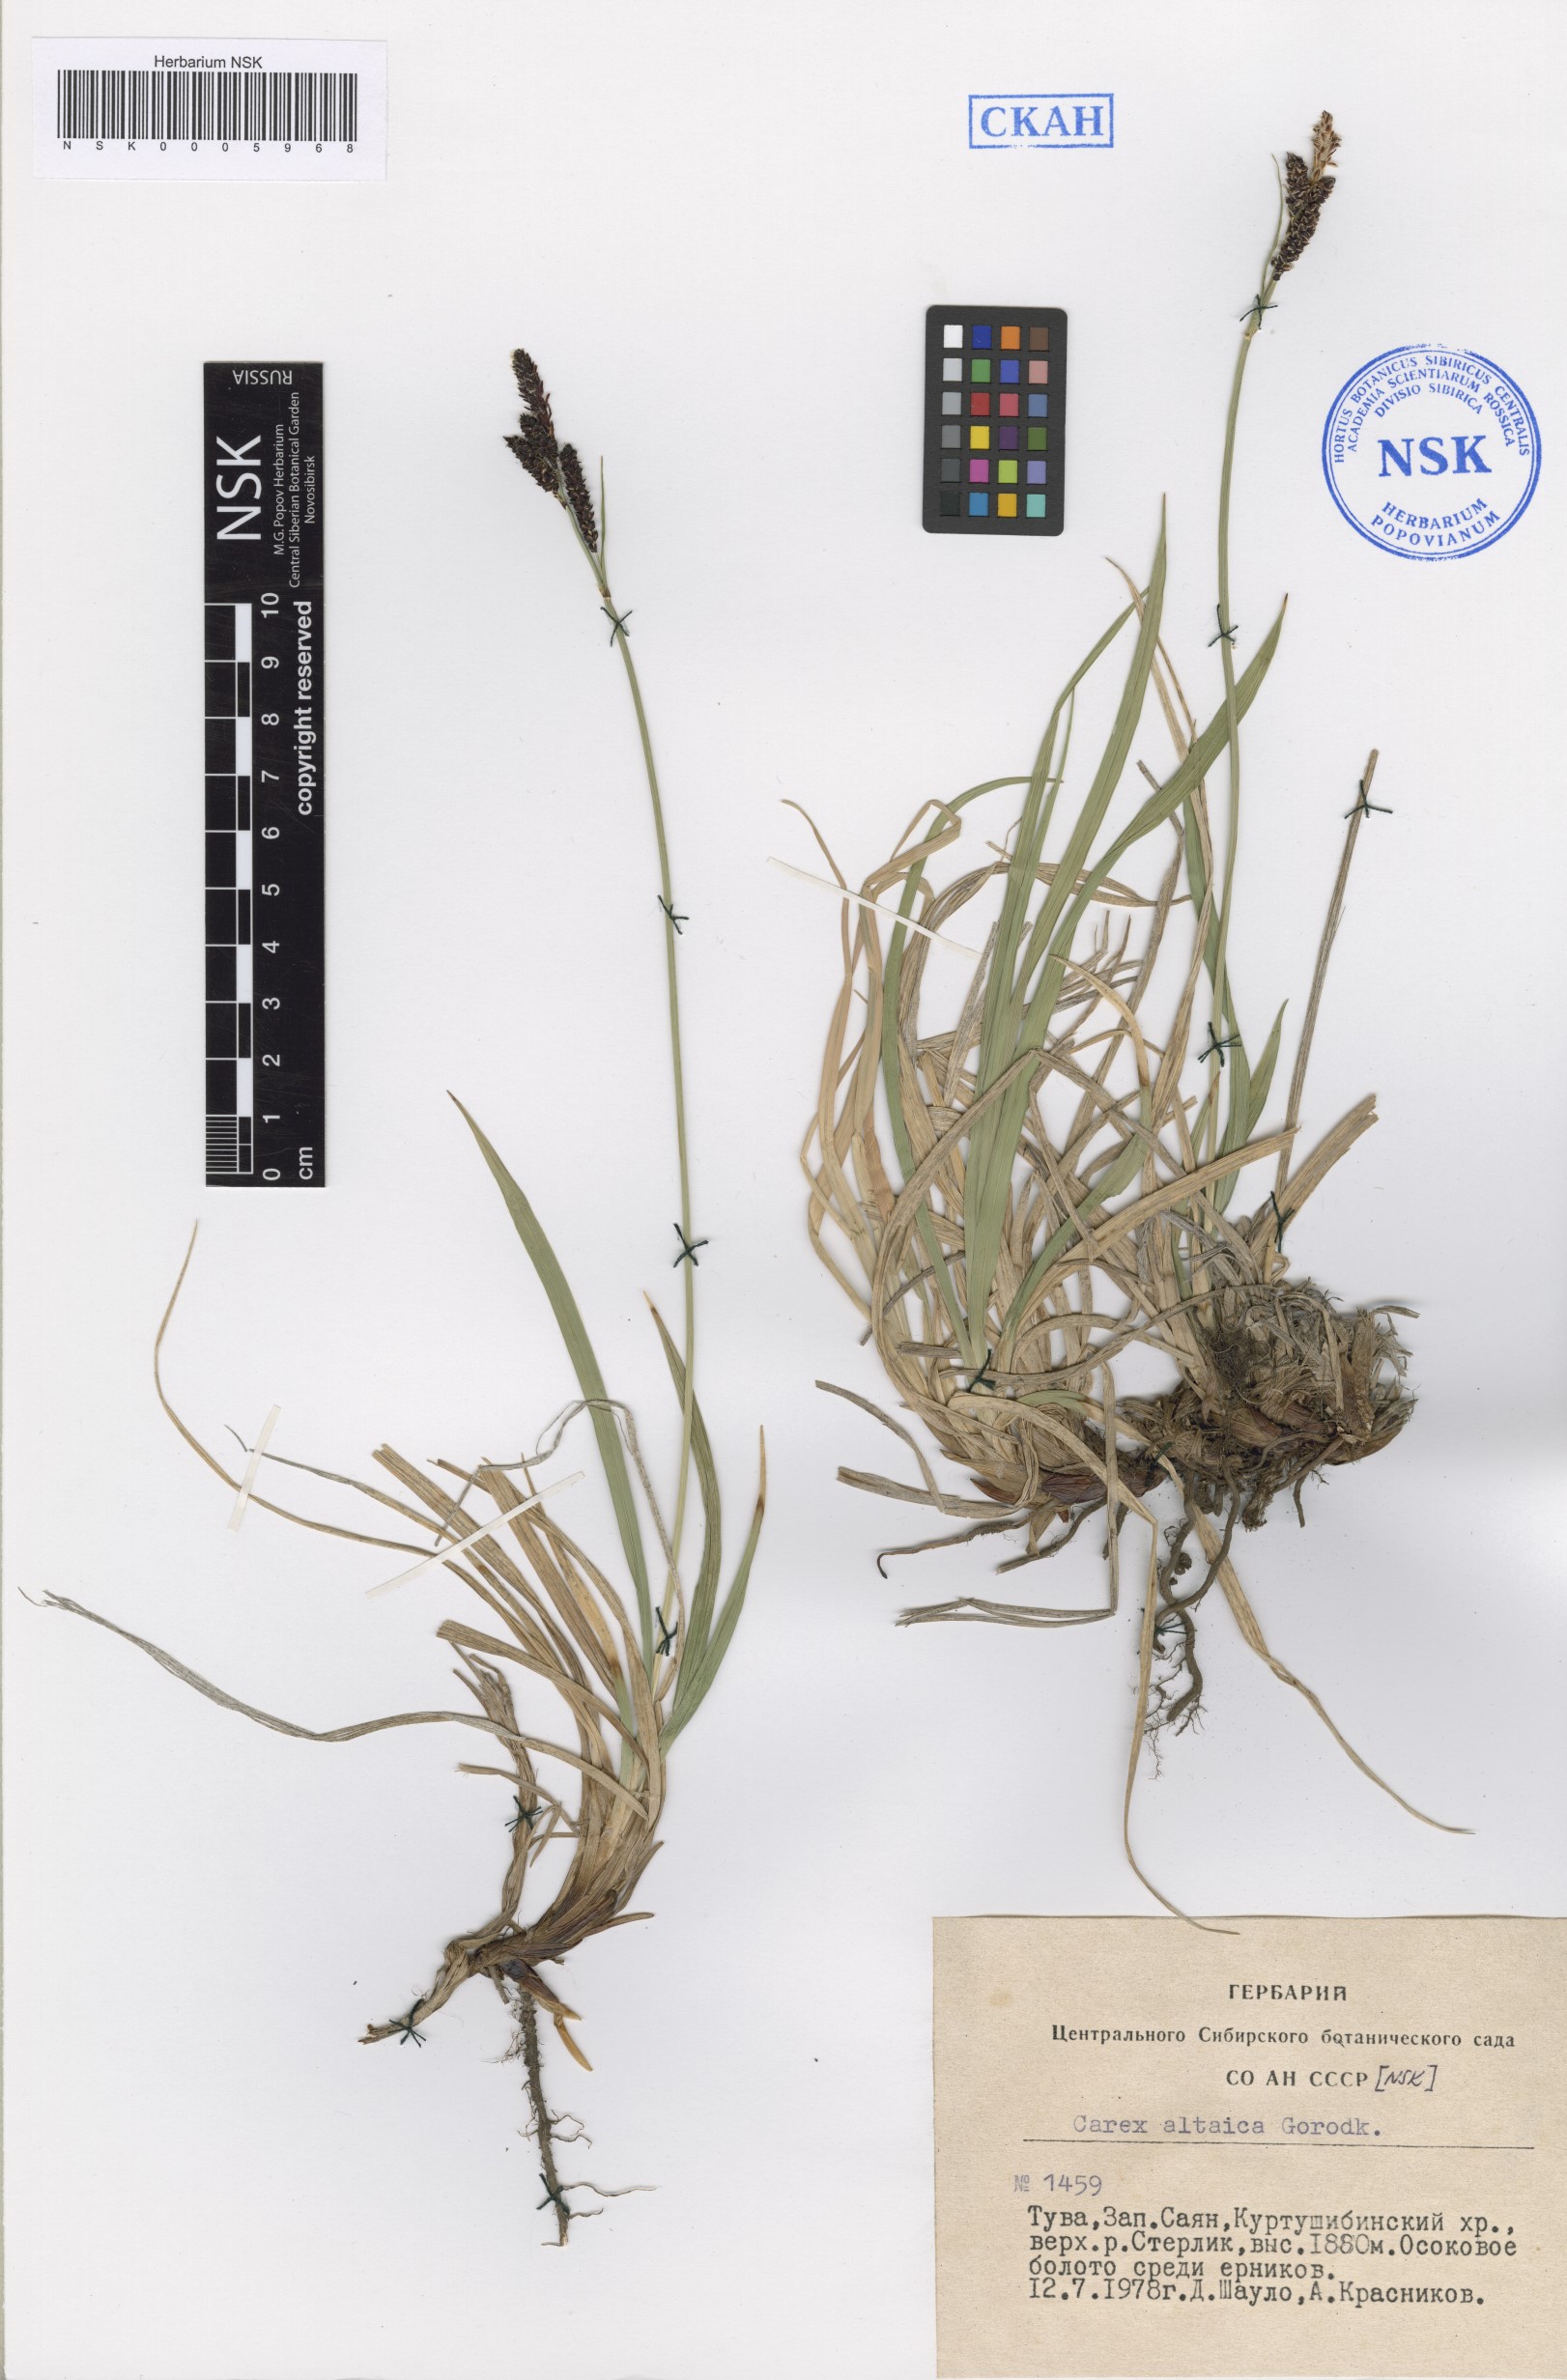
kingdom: Plantae
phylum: Tracheophyta
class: Liliopsida
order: Poales
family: Cyperaceae
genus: Carex
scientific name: Carex altaica
